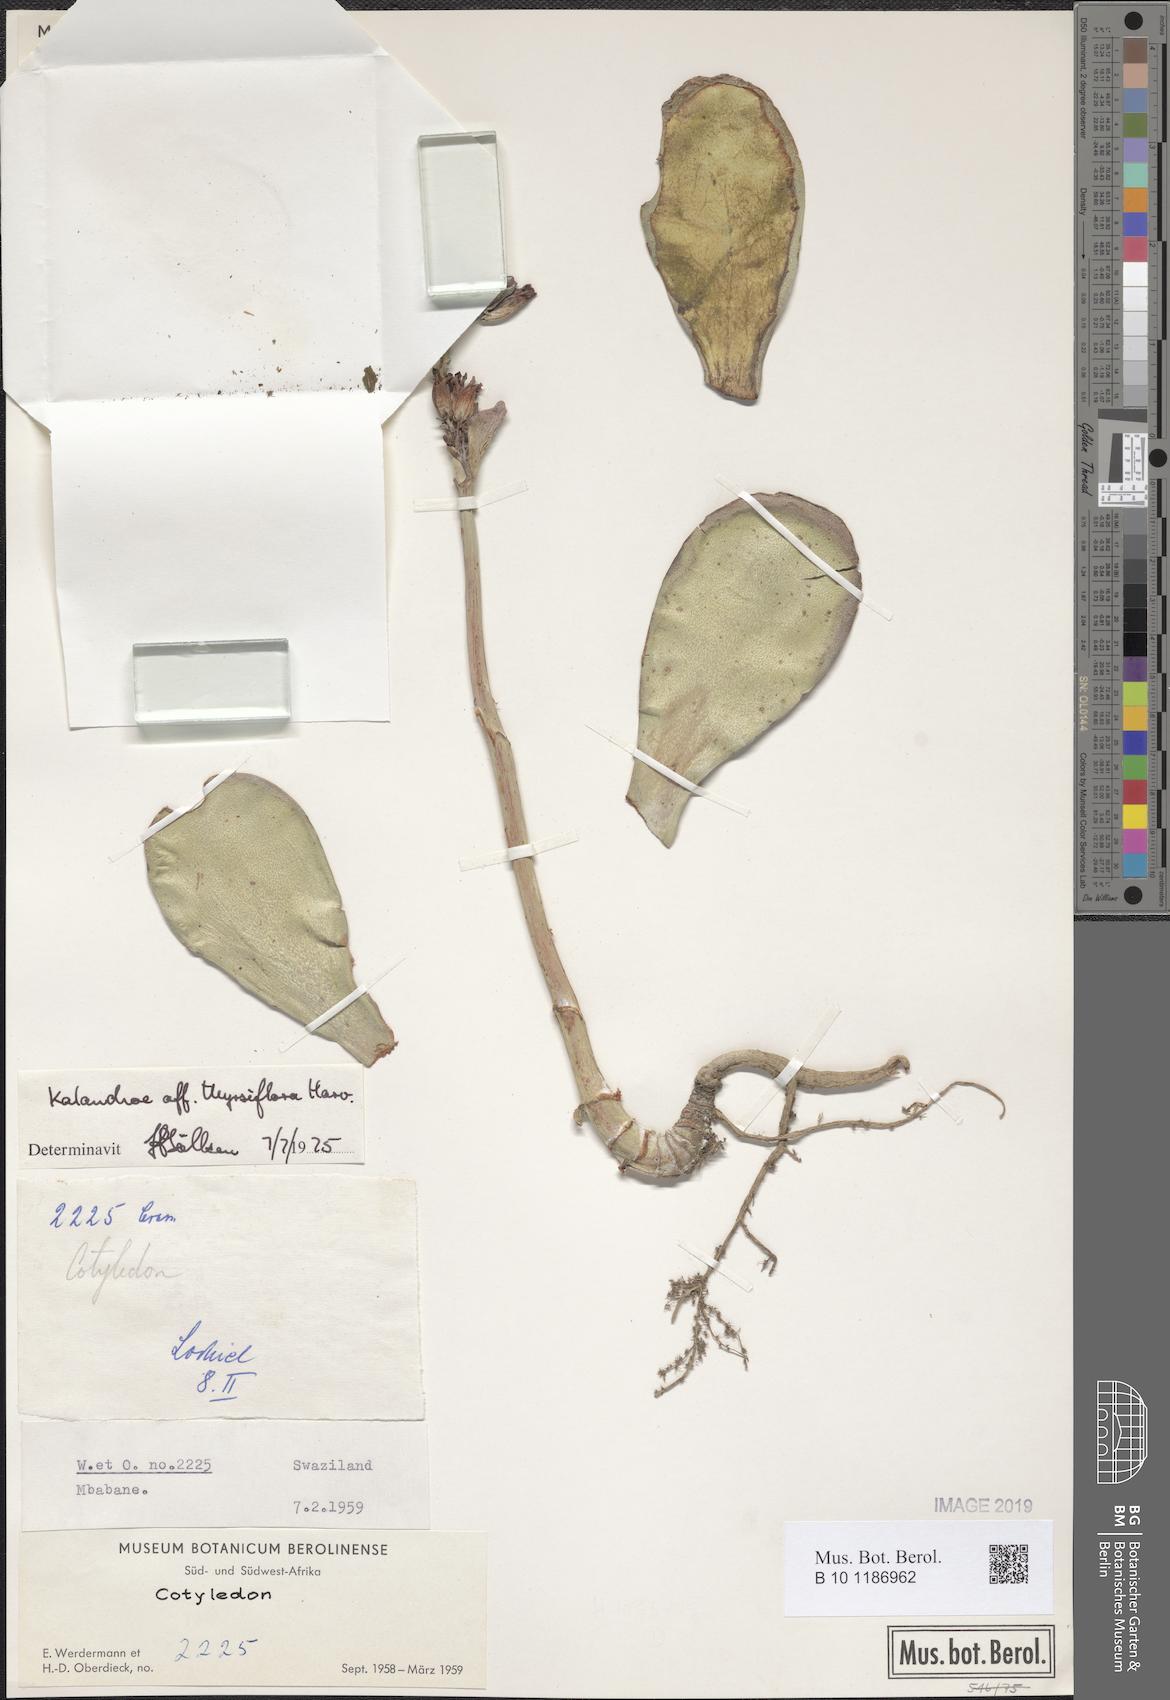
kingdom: Plantae
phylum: Tracheophyta
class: Magnoliopsida
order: Saxifragales
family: Crassulaceae
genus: Kalanchoe
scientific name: Kalanchoe thyrsiflora
